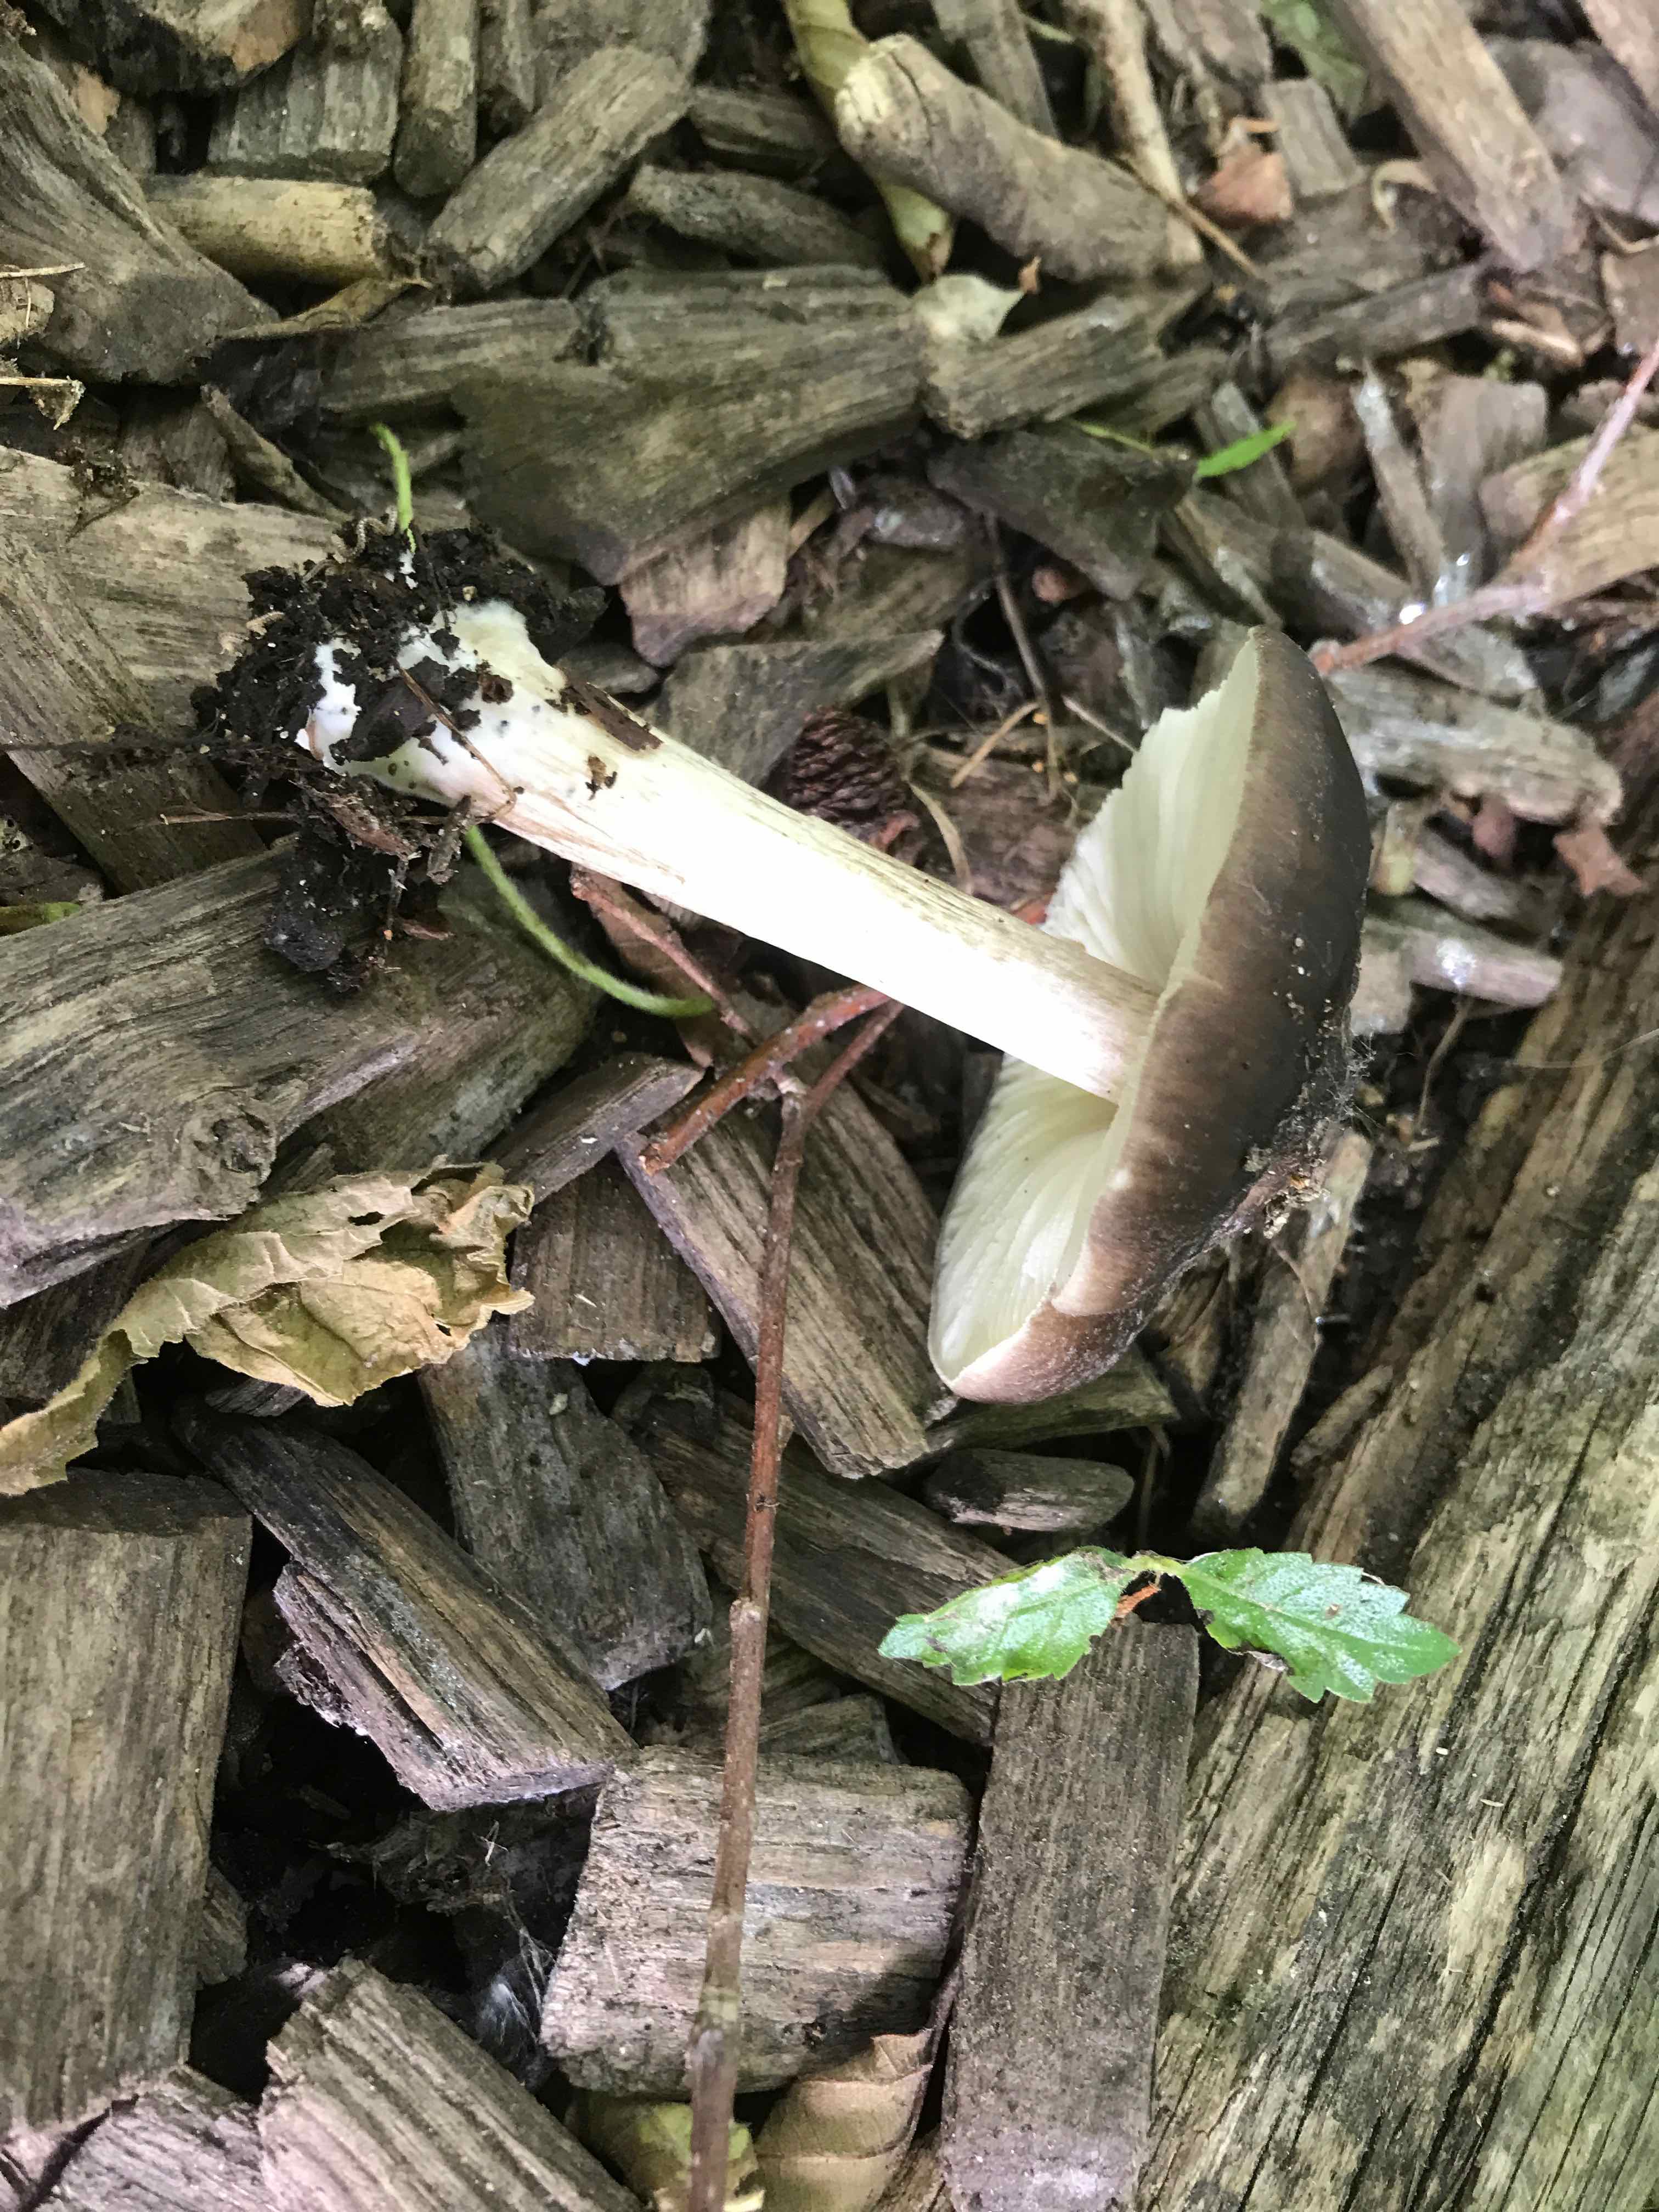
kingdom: Fungi
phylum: Basidiomycota
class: Agaricomycetes
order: Agaricales
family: Pluteaceae
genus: Pluteus
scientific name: Pluteus cervinus
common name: sodfarvet skærmhat
